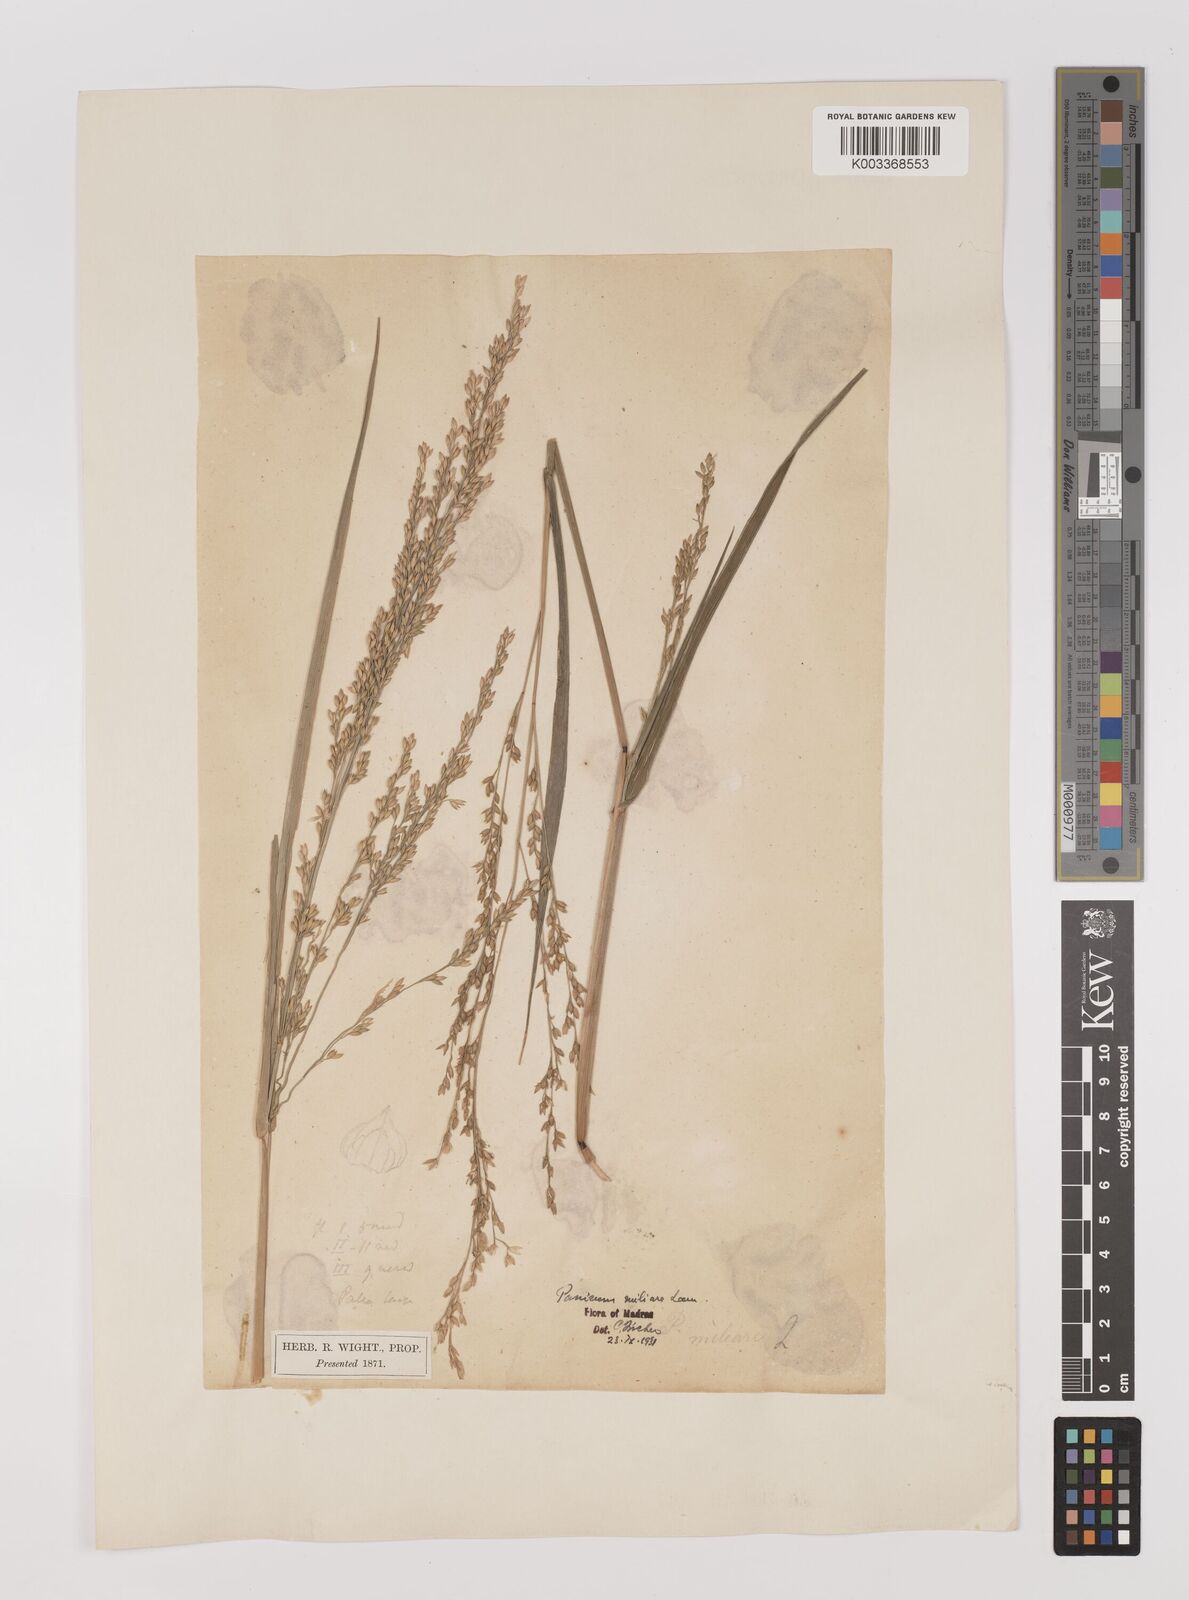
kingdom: Plantae
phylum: Tracheophyta
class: Liliopsida
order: Poales
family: Poaceae
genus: Panicum
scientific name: Panicum sumatrense
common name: Little millet
